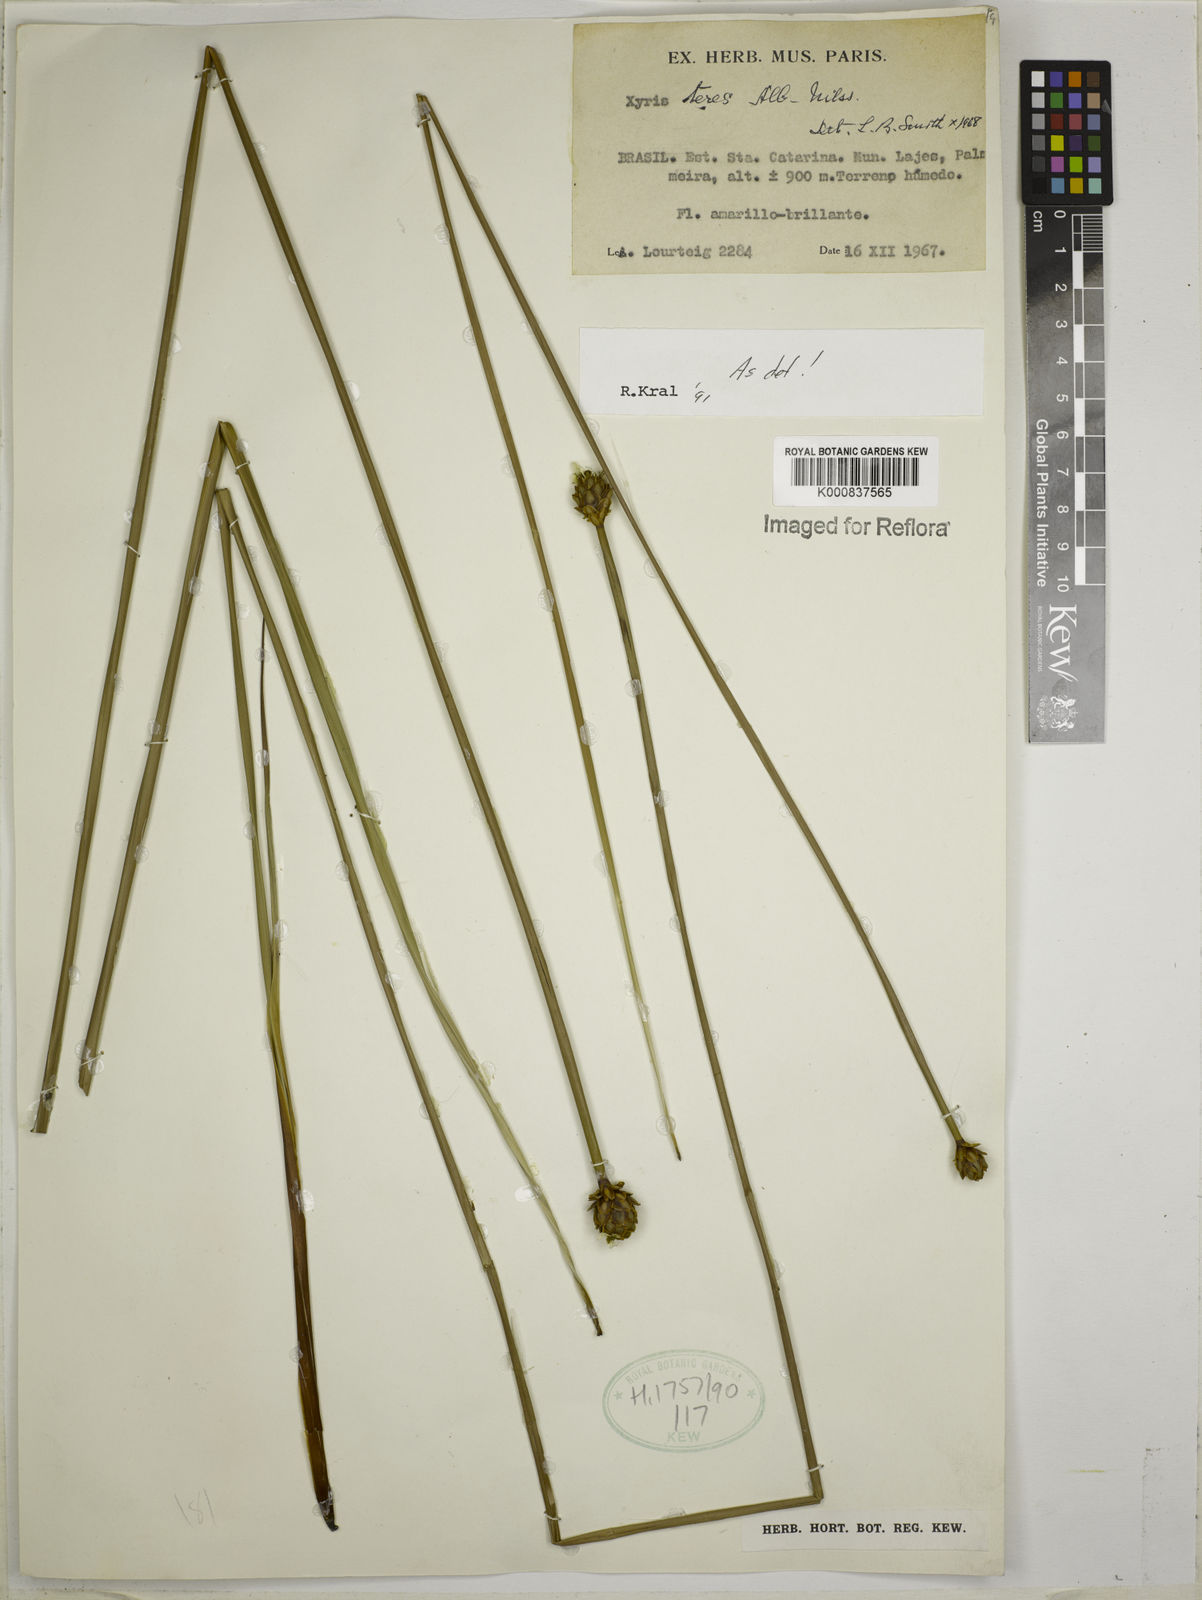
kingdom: Plantae
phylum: Tracheophyta
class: Liliopsida
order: Poales
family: Xyridaceae
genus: Xyris
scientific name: Xyris teres
